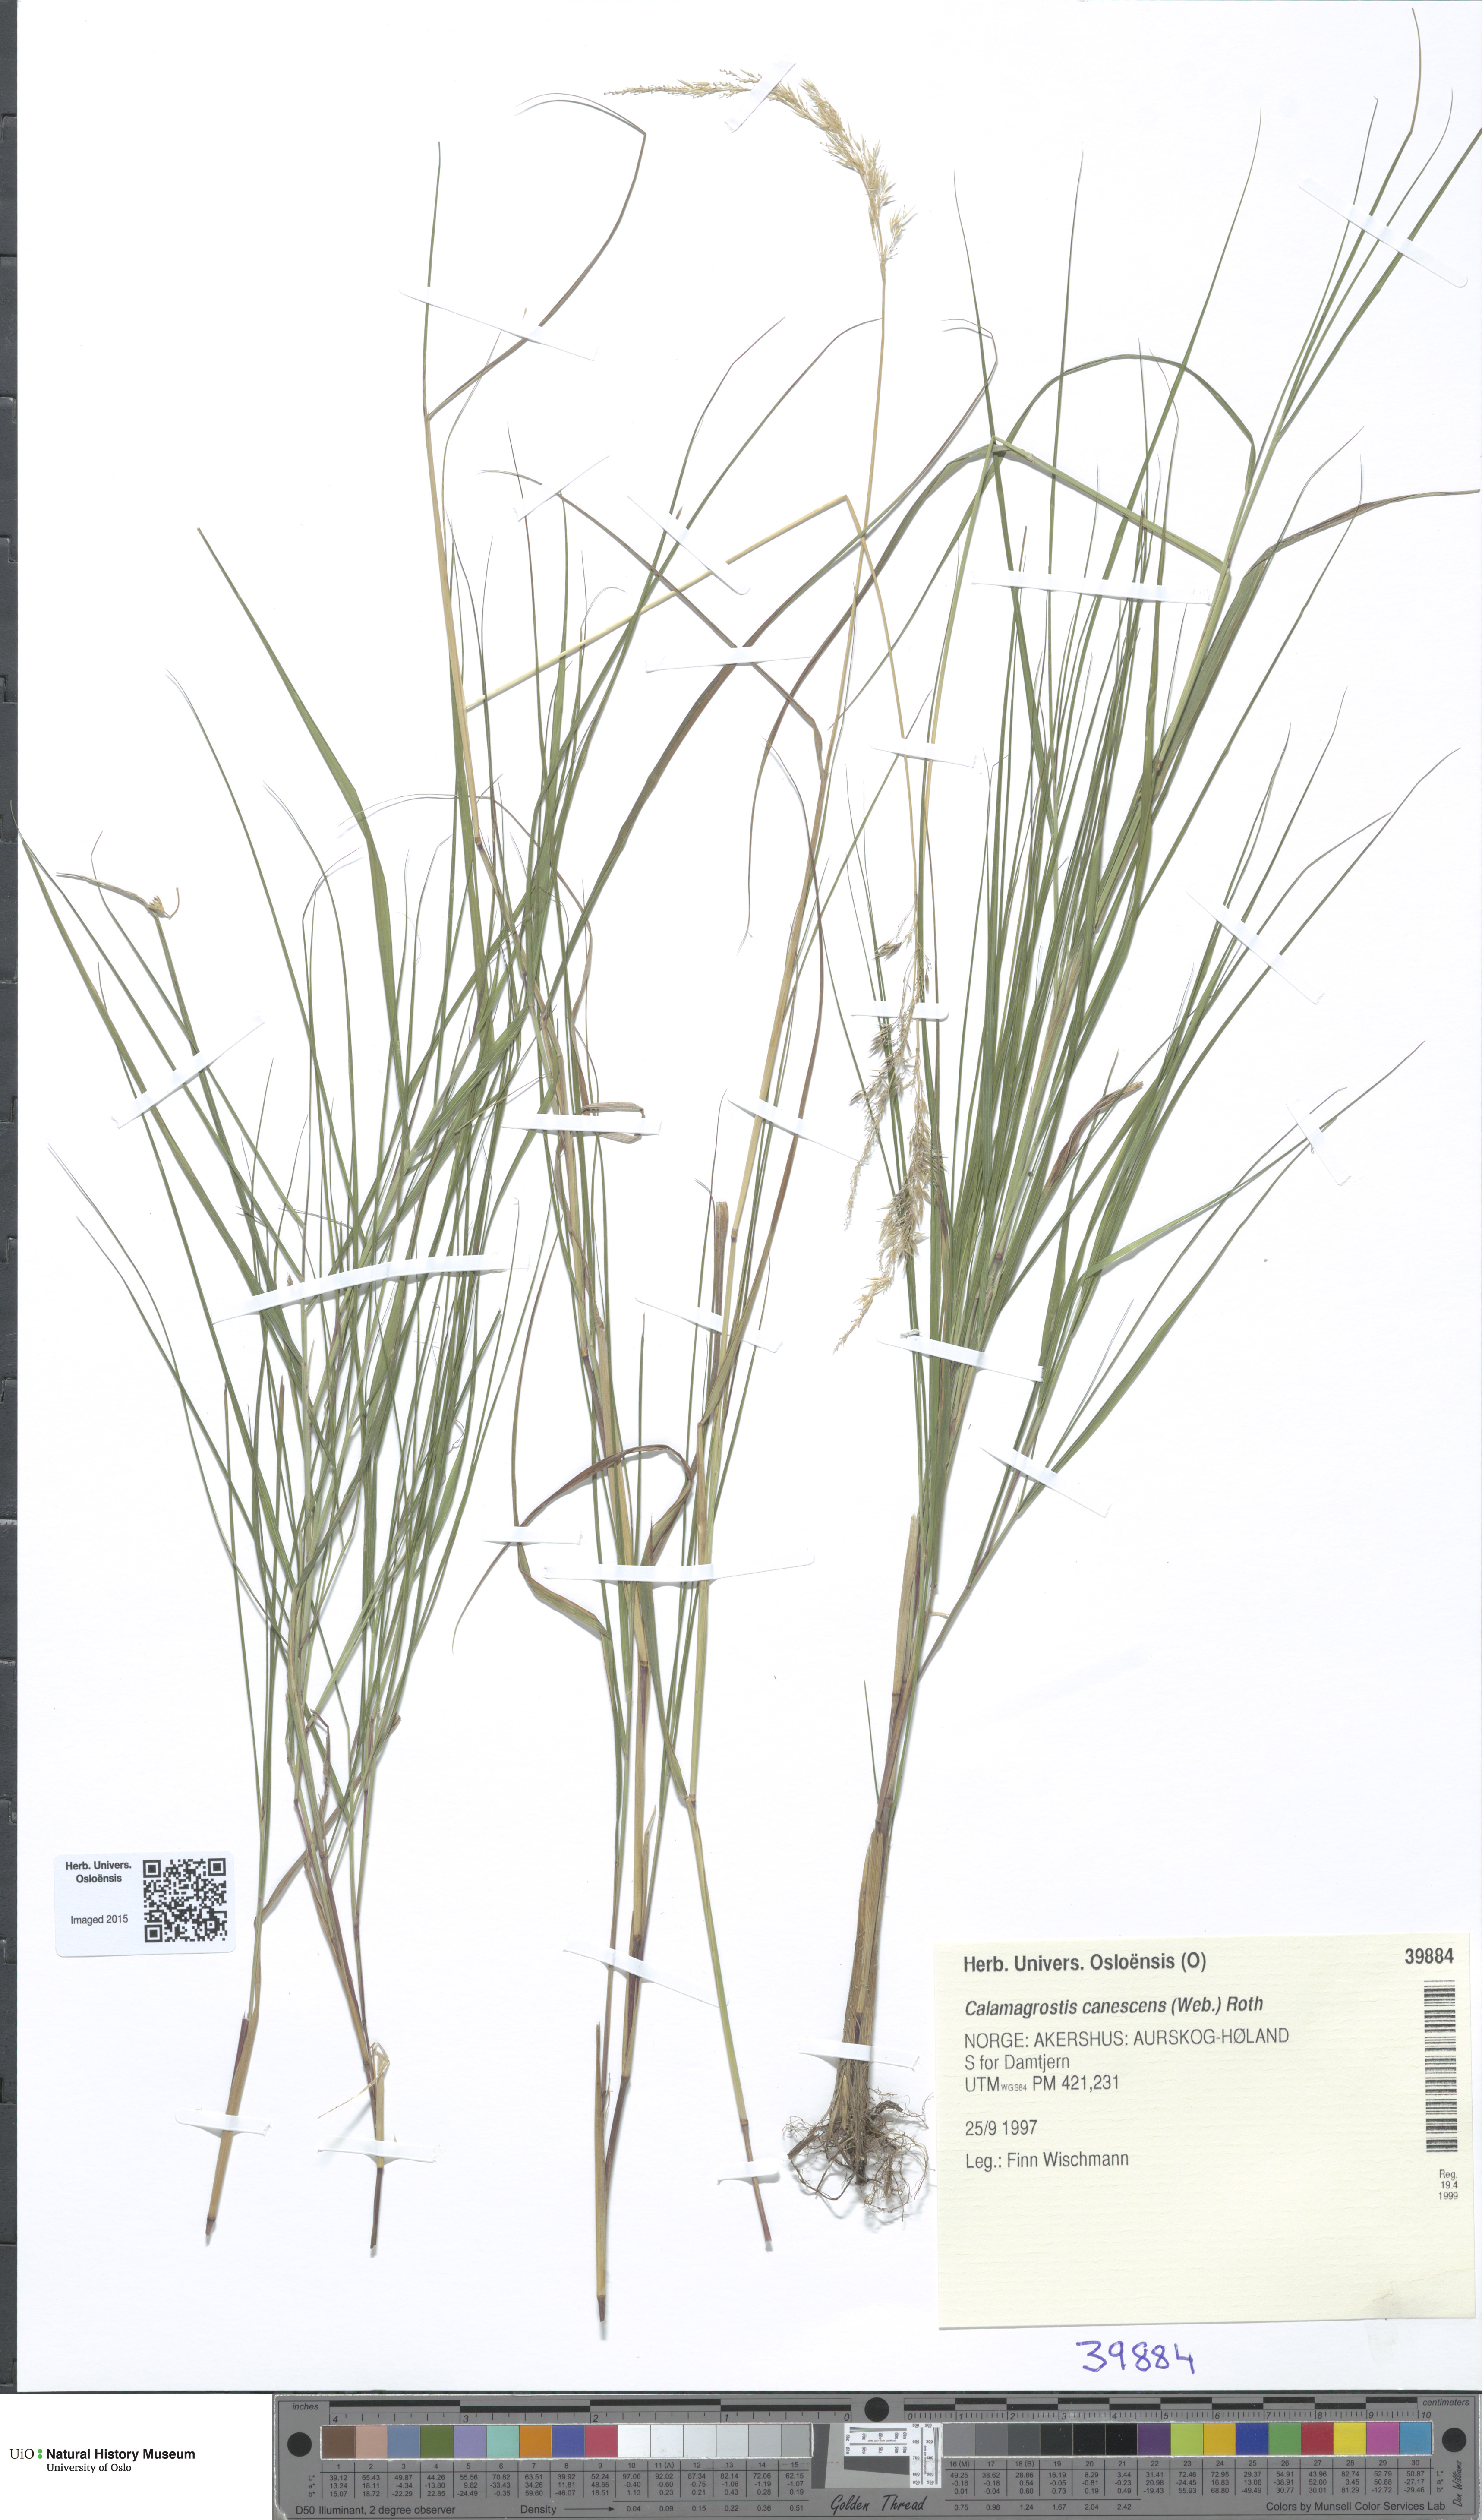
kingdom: Plantae
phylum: Tracheophyta
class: Liliopsida
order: Poales
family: Poaceae
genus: Calamagrostis
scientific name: Calamagrostis canescens
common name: Purple small-reed
